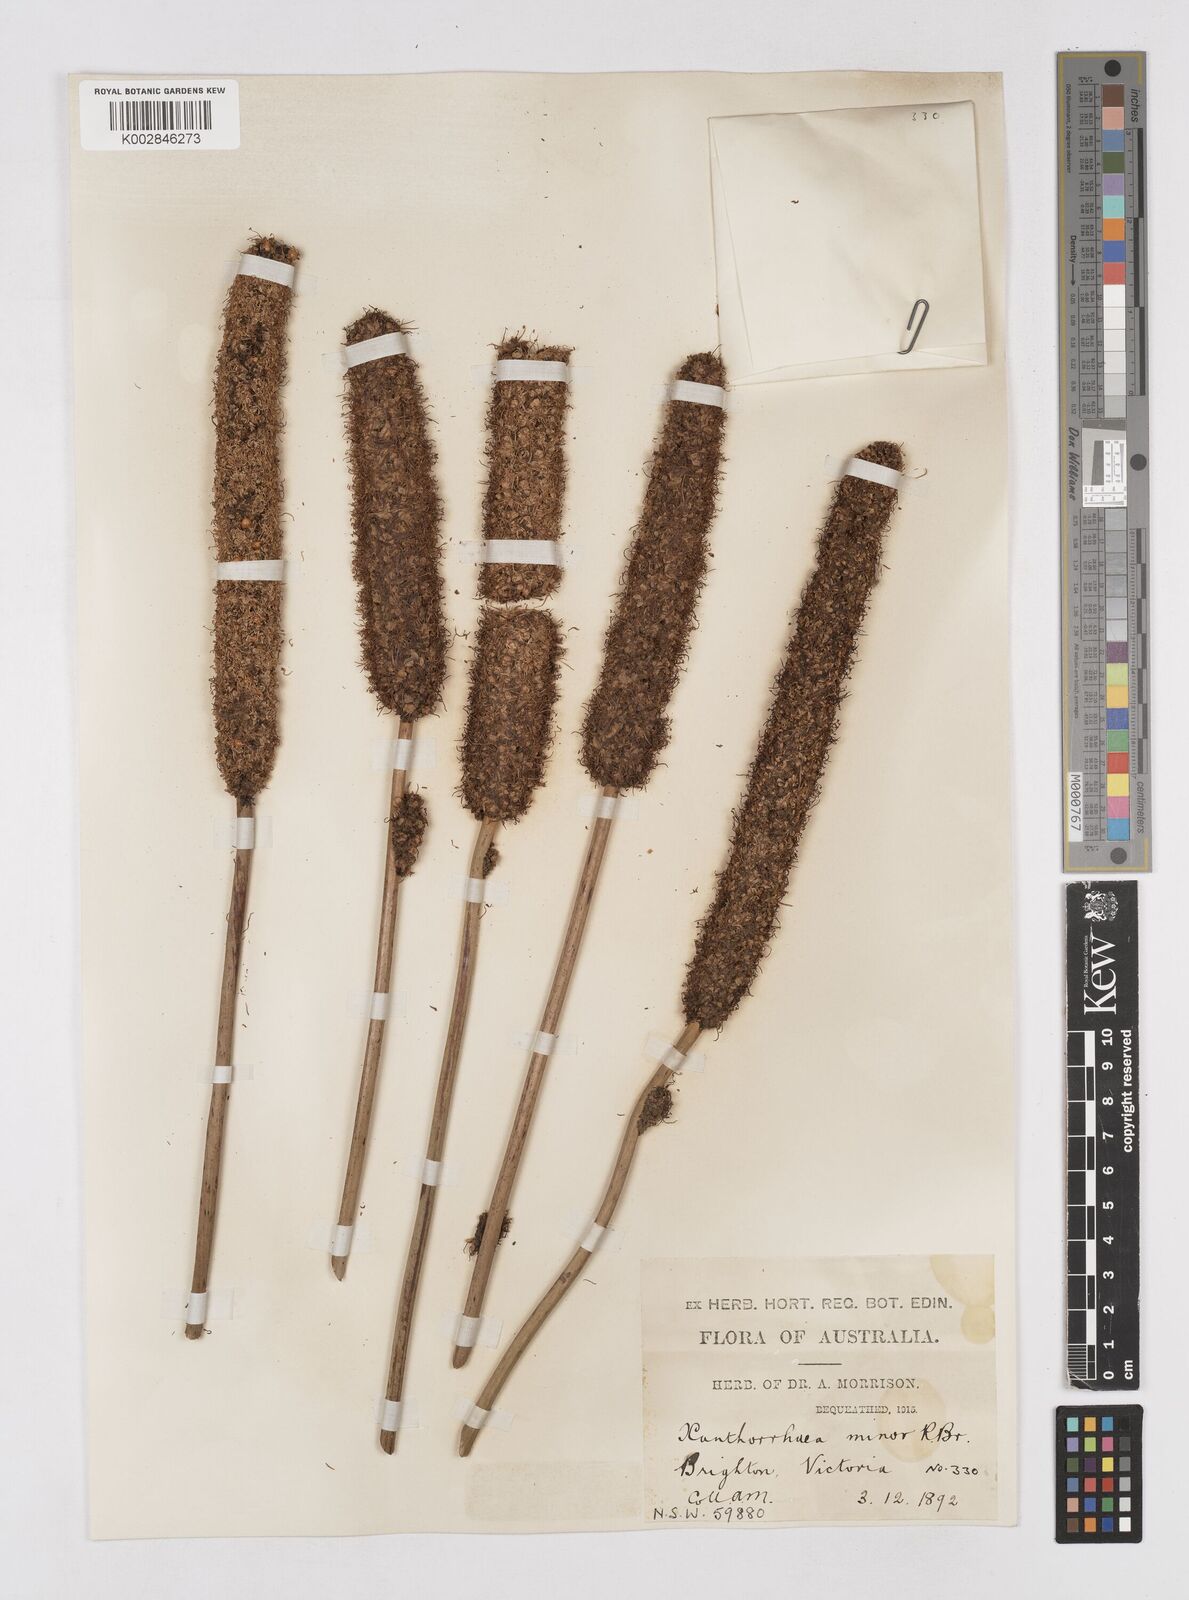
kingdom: Plantae
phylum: Tracheophyta
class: Liliopsida
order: Asparagales
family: Asphodelaceae
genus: Xanthorrhoea
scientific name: Xanthorrhoea minor
